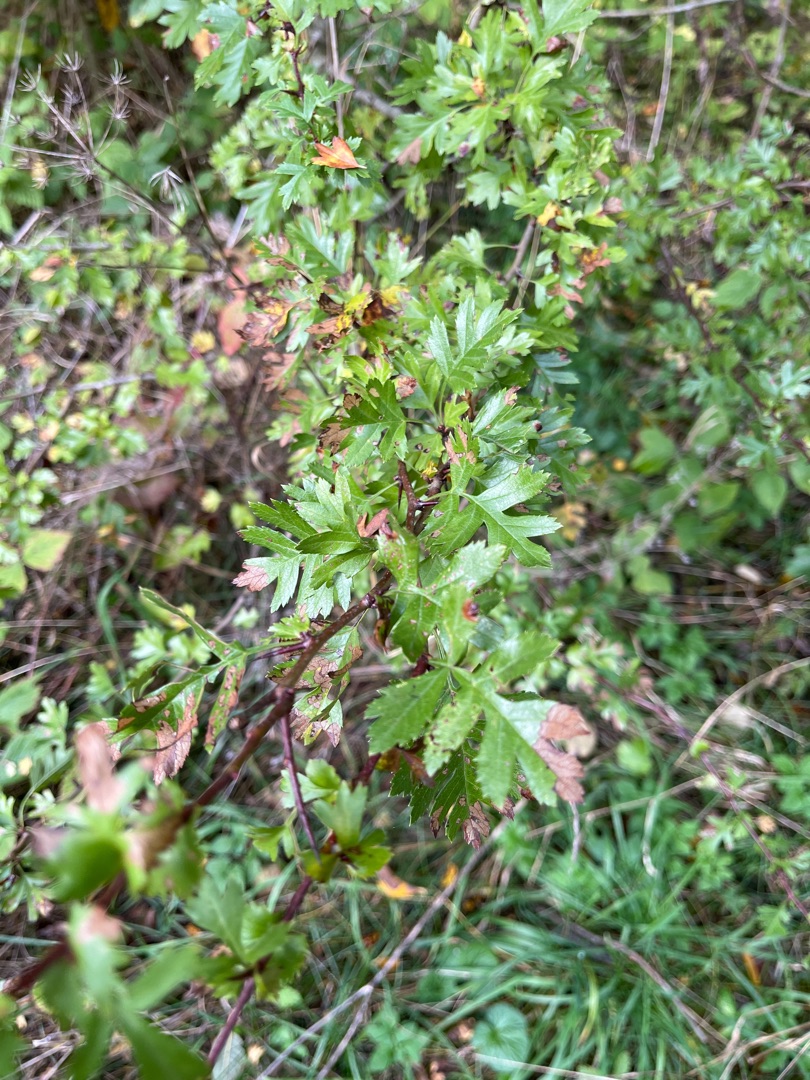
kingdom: Plantae
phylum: Tracheophyta
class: Magnoliopsida
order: Rosales
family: Rosaceae
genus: Crataegus
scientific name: Crataegus monogyna
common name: Engriflet hvidtjørn
